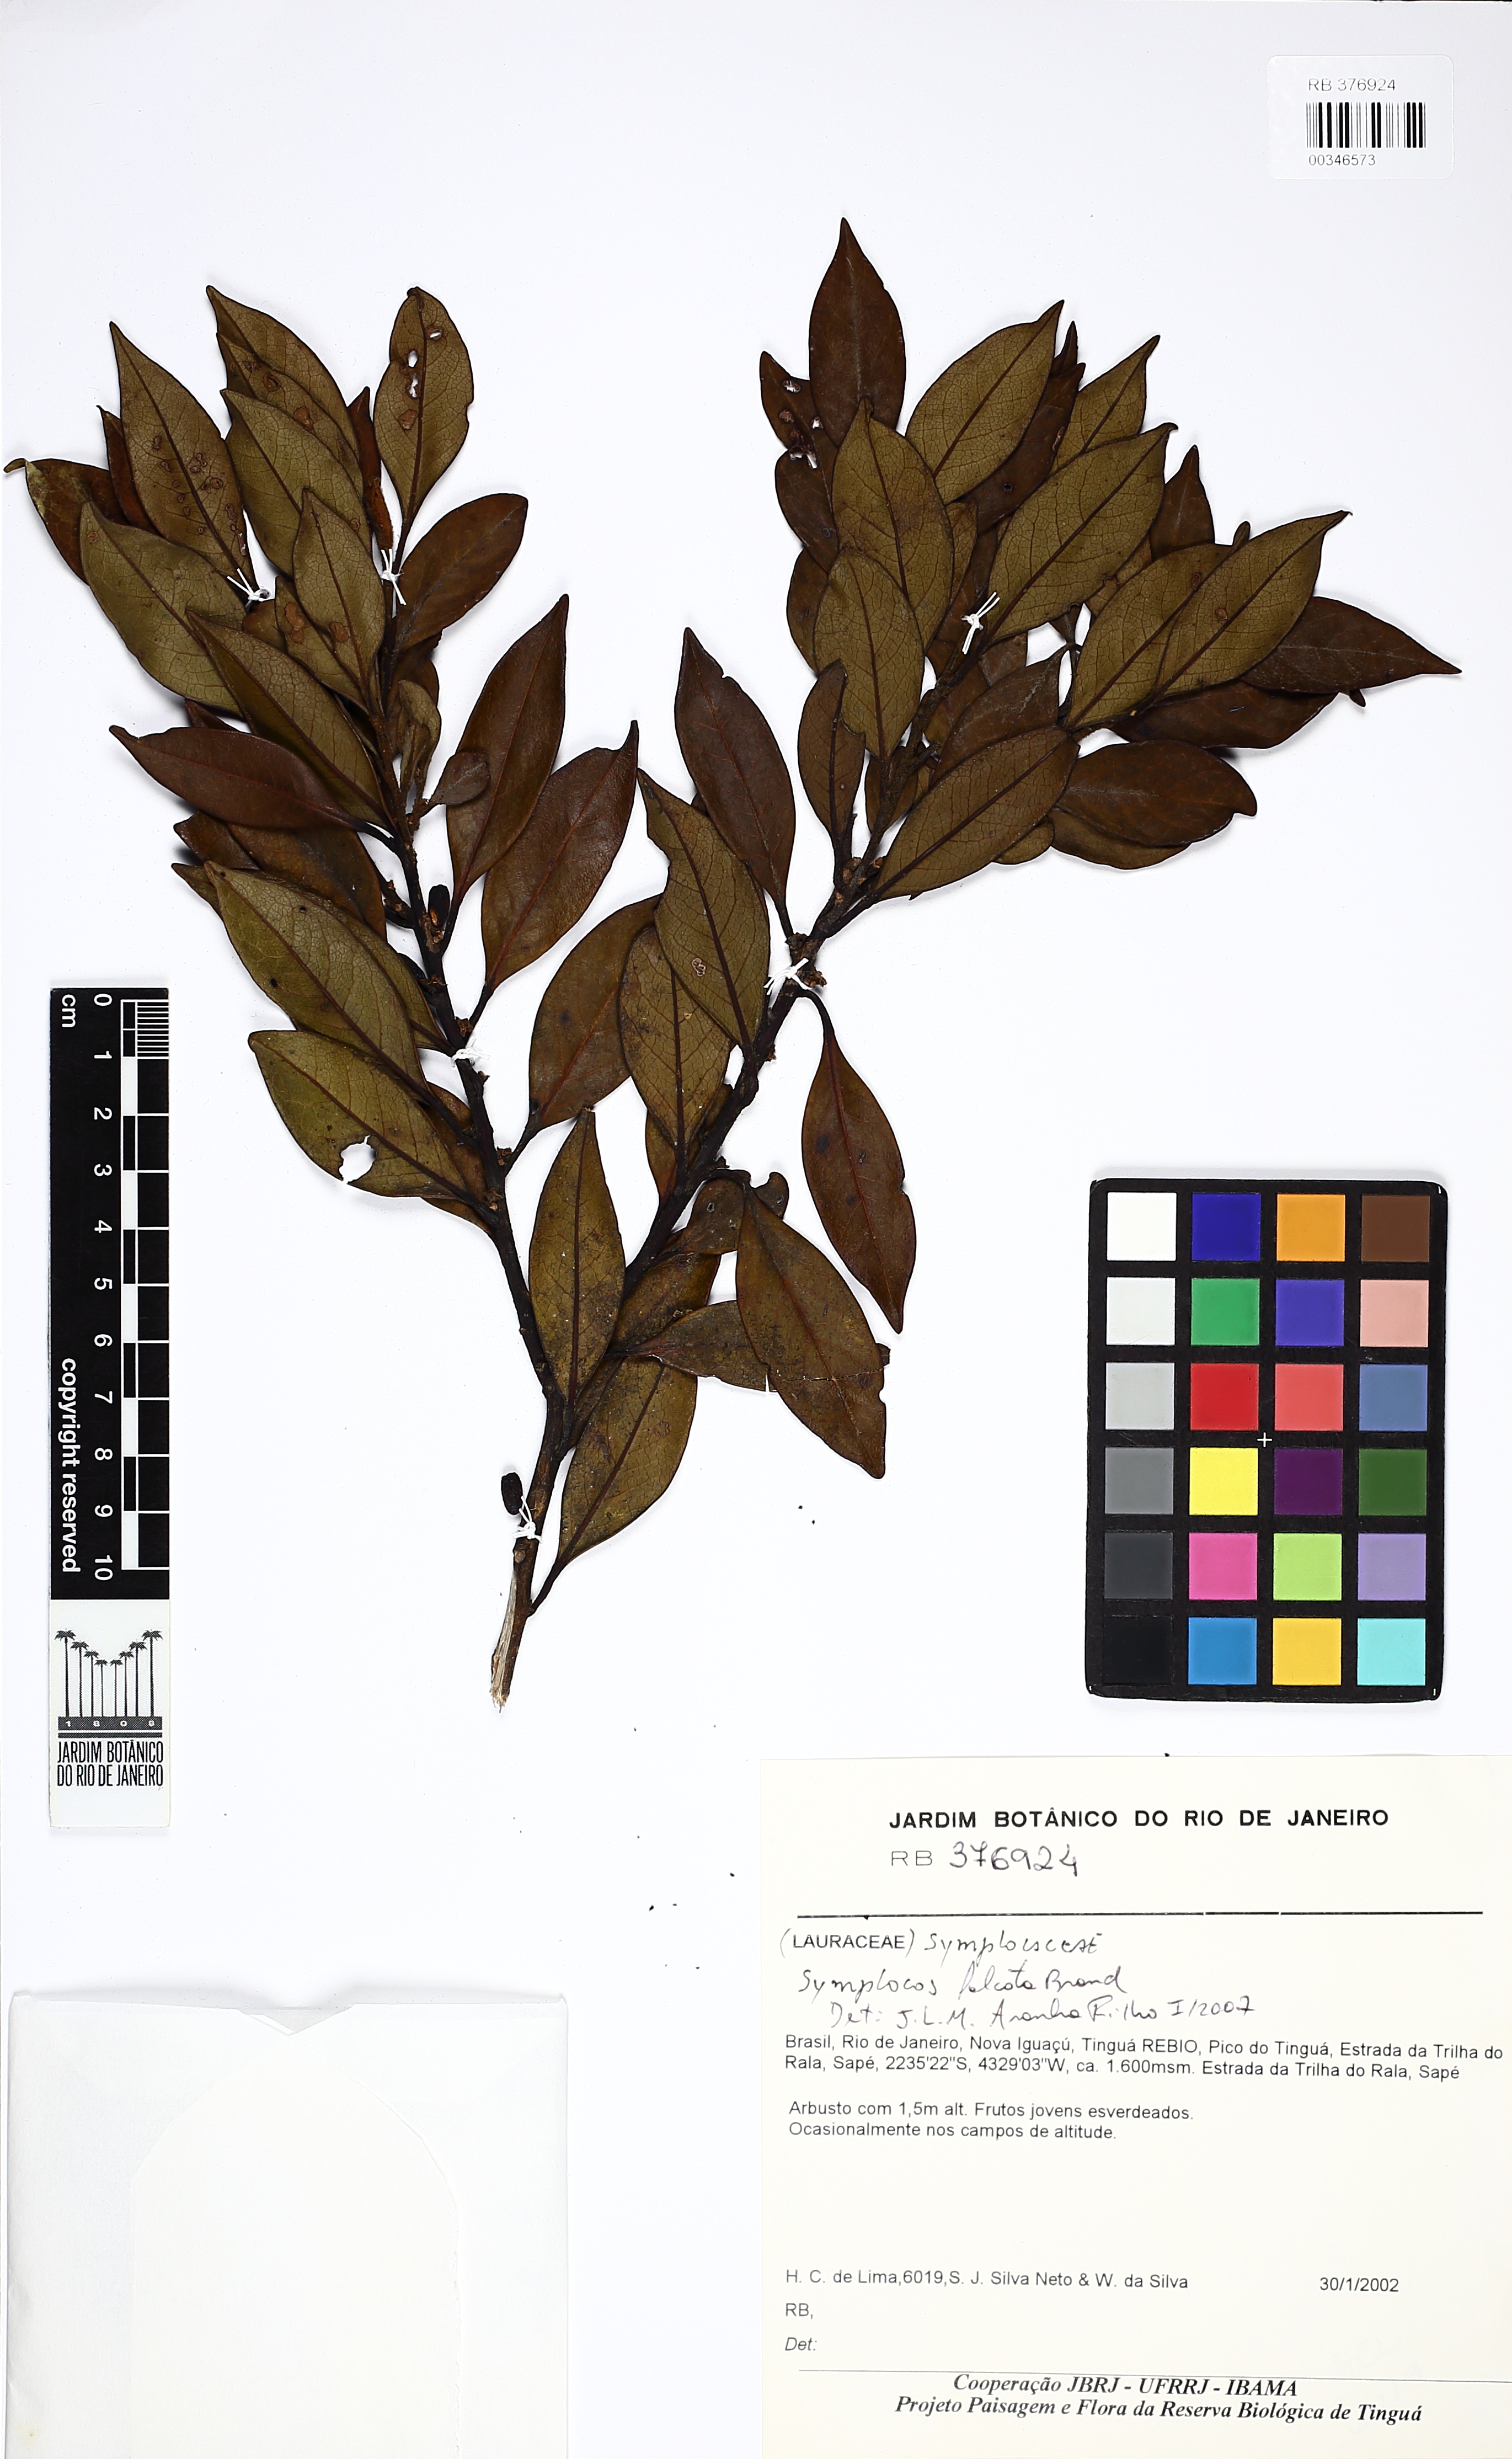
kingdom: Plantae
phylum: Tracheophyta
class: Magnoliopsida
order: Ericales
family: Symplocaceae
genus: Symplocos
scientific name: Symplocos
